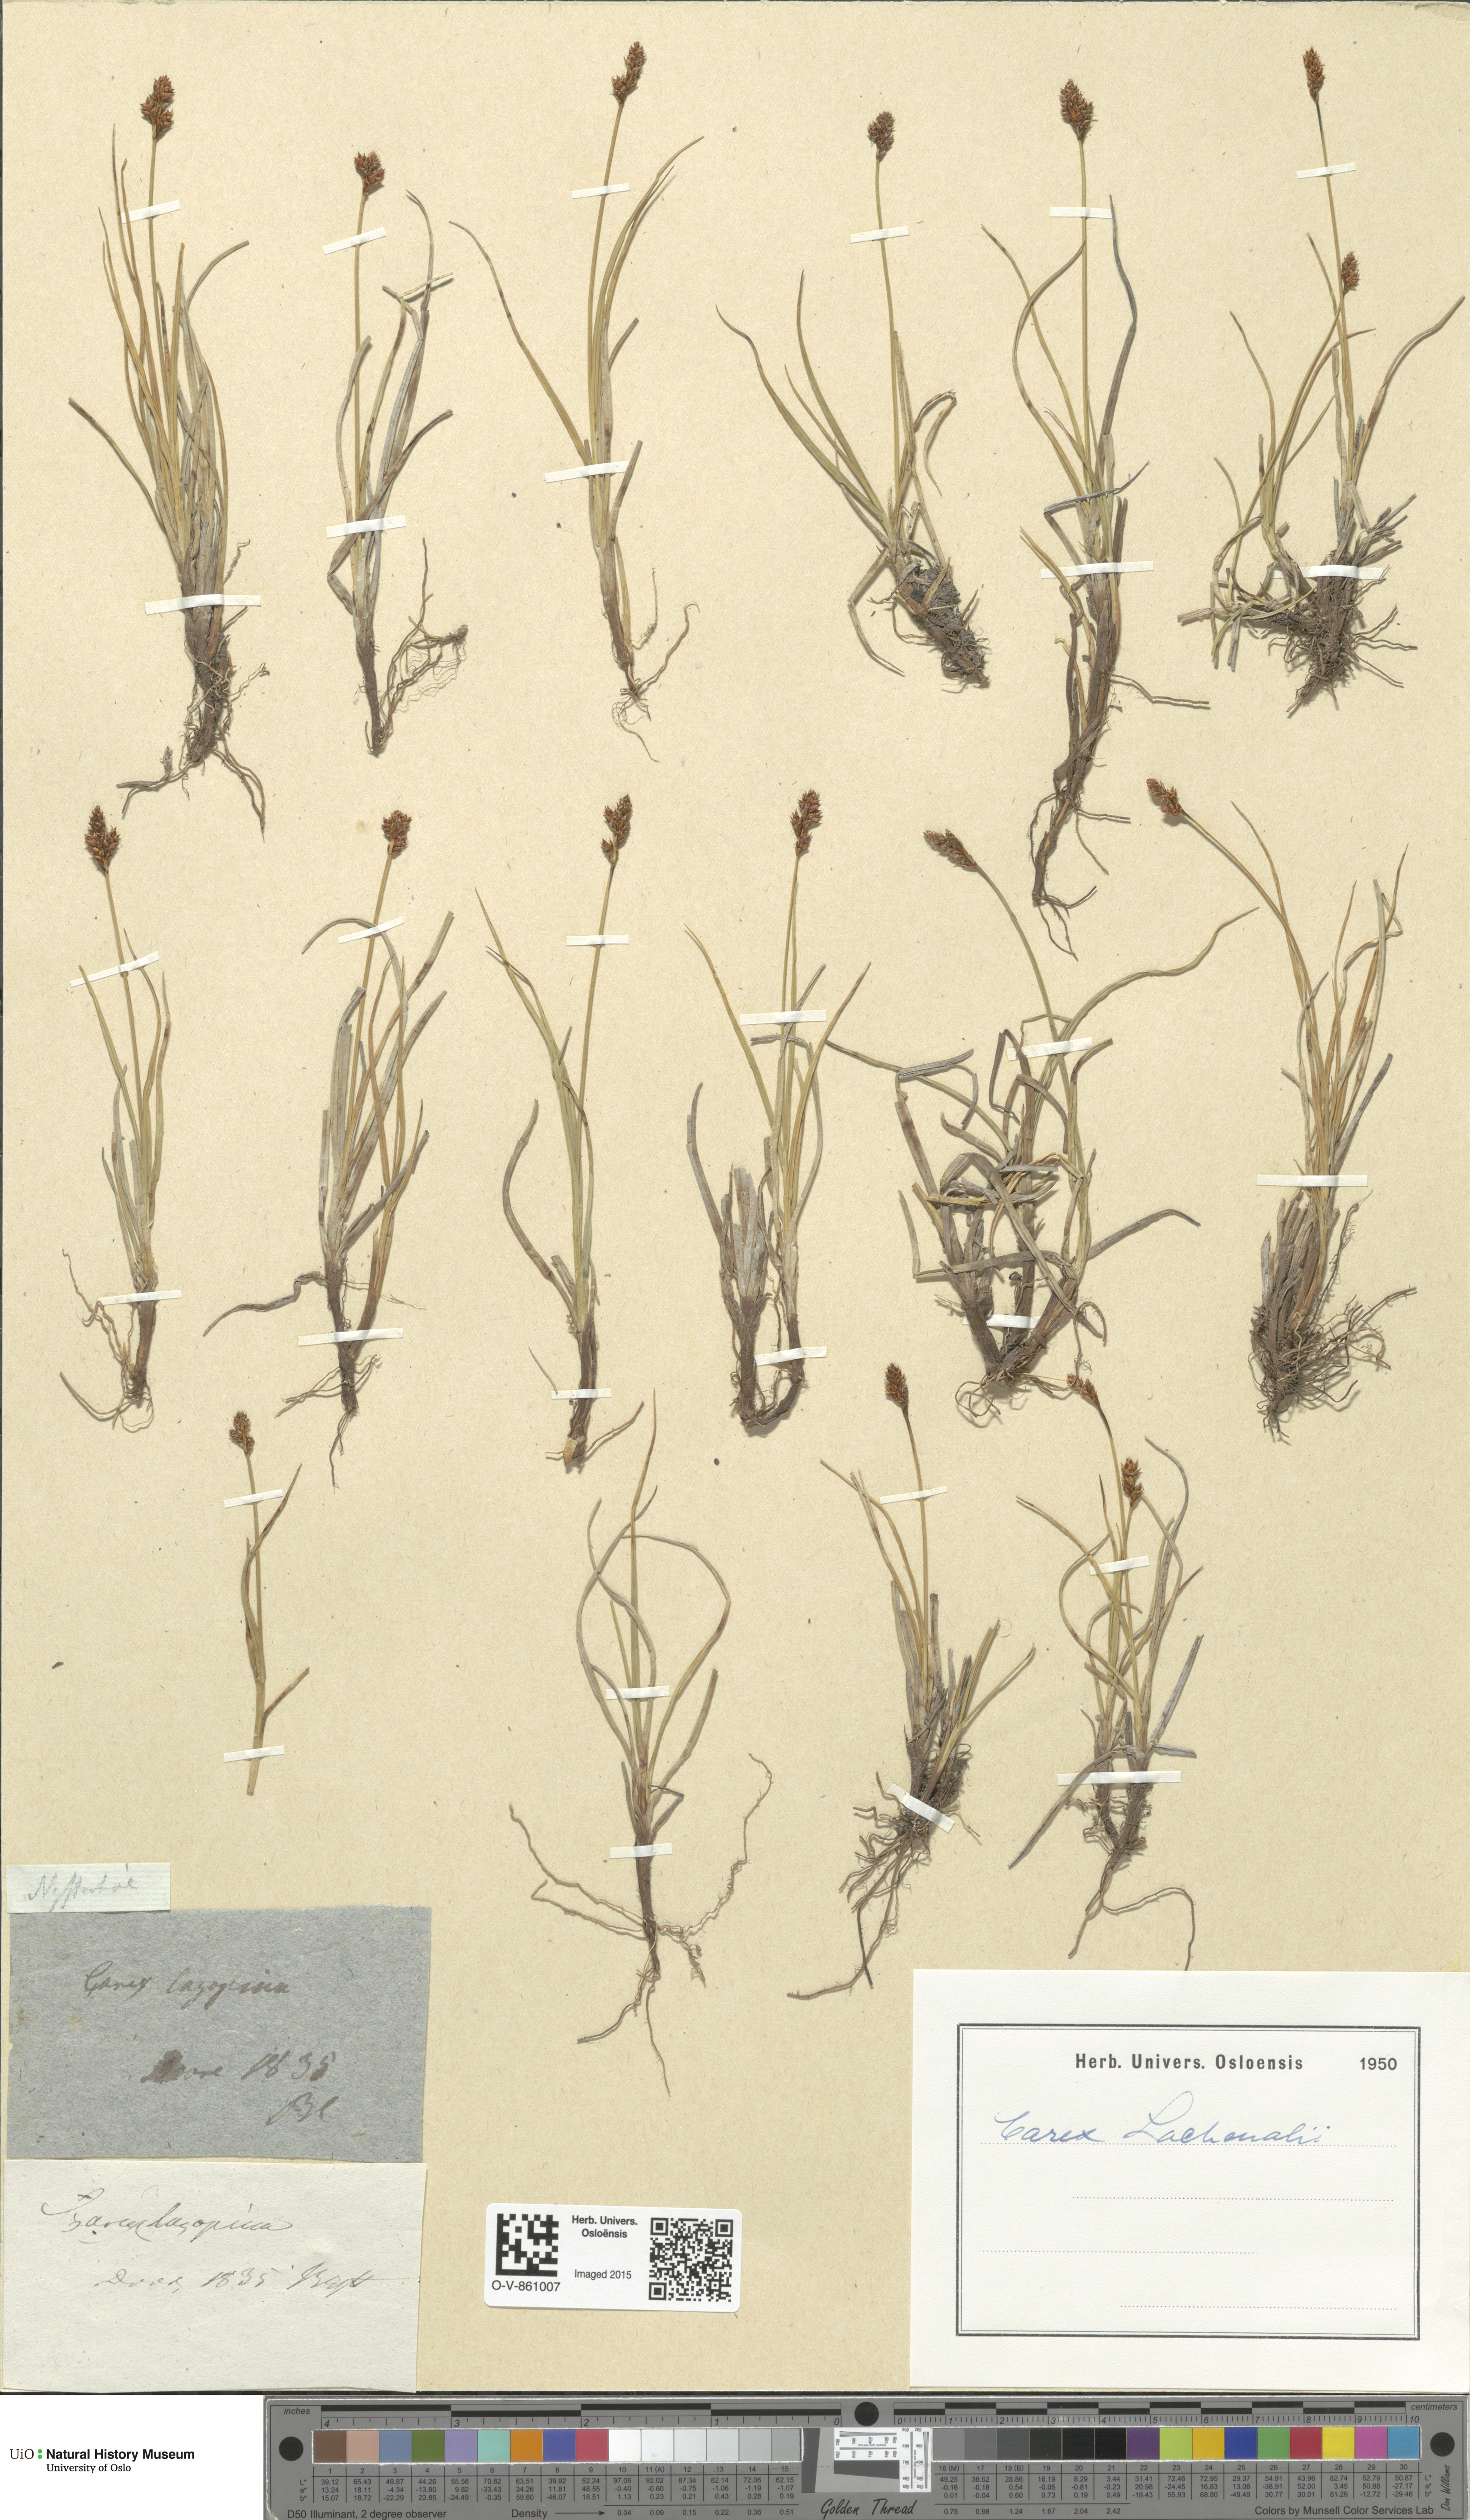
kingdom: Plantae
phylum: Tracheophyta
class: Liliopsida
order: Poales
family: Cyperaceae
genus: Carex
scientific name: Carex lachenalii
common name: Hare's-foot sedge
